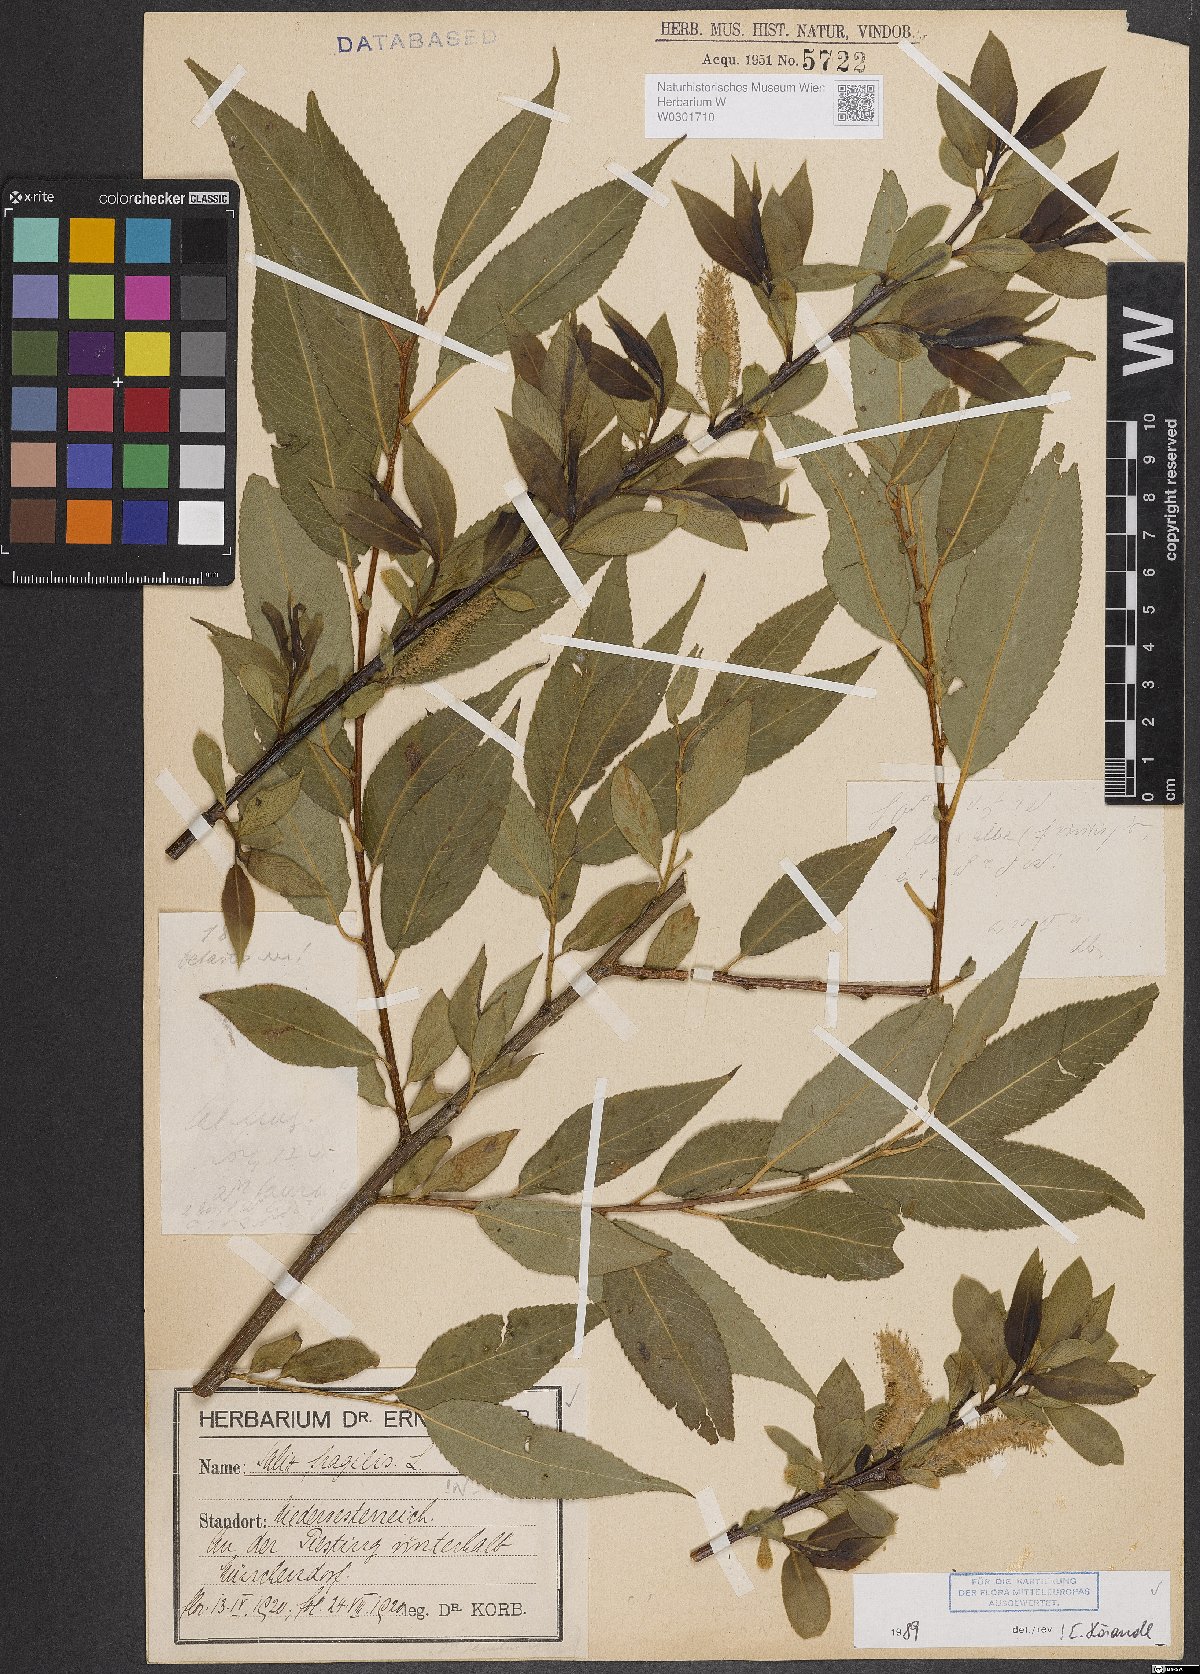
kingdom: Plantae
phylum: Tracheophyta
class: Magnoliopsida
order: Malpighiales
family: Salicaceae
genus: Salix
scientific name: Salix fragilis
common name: Crack willow
